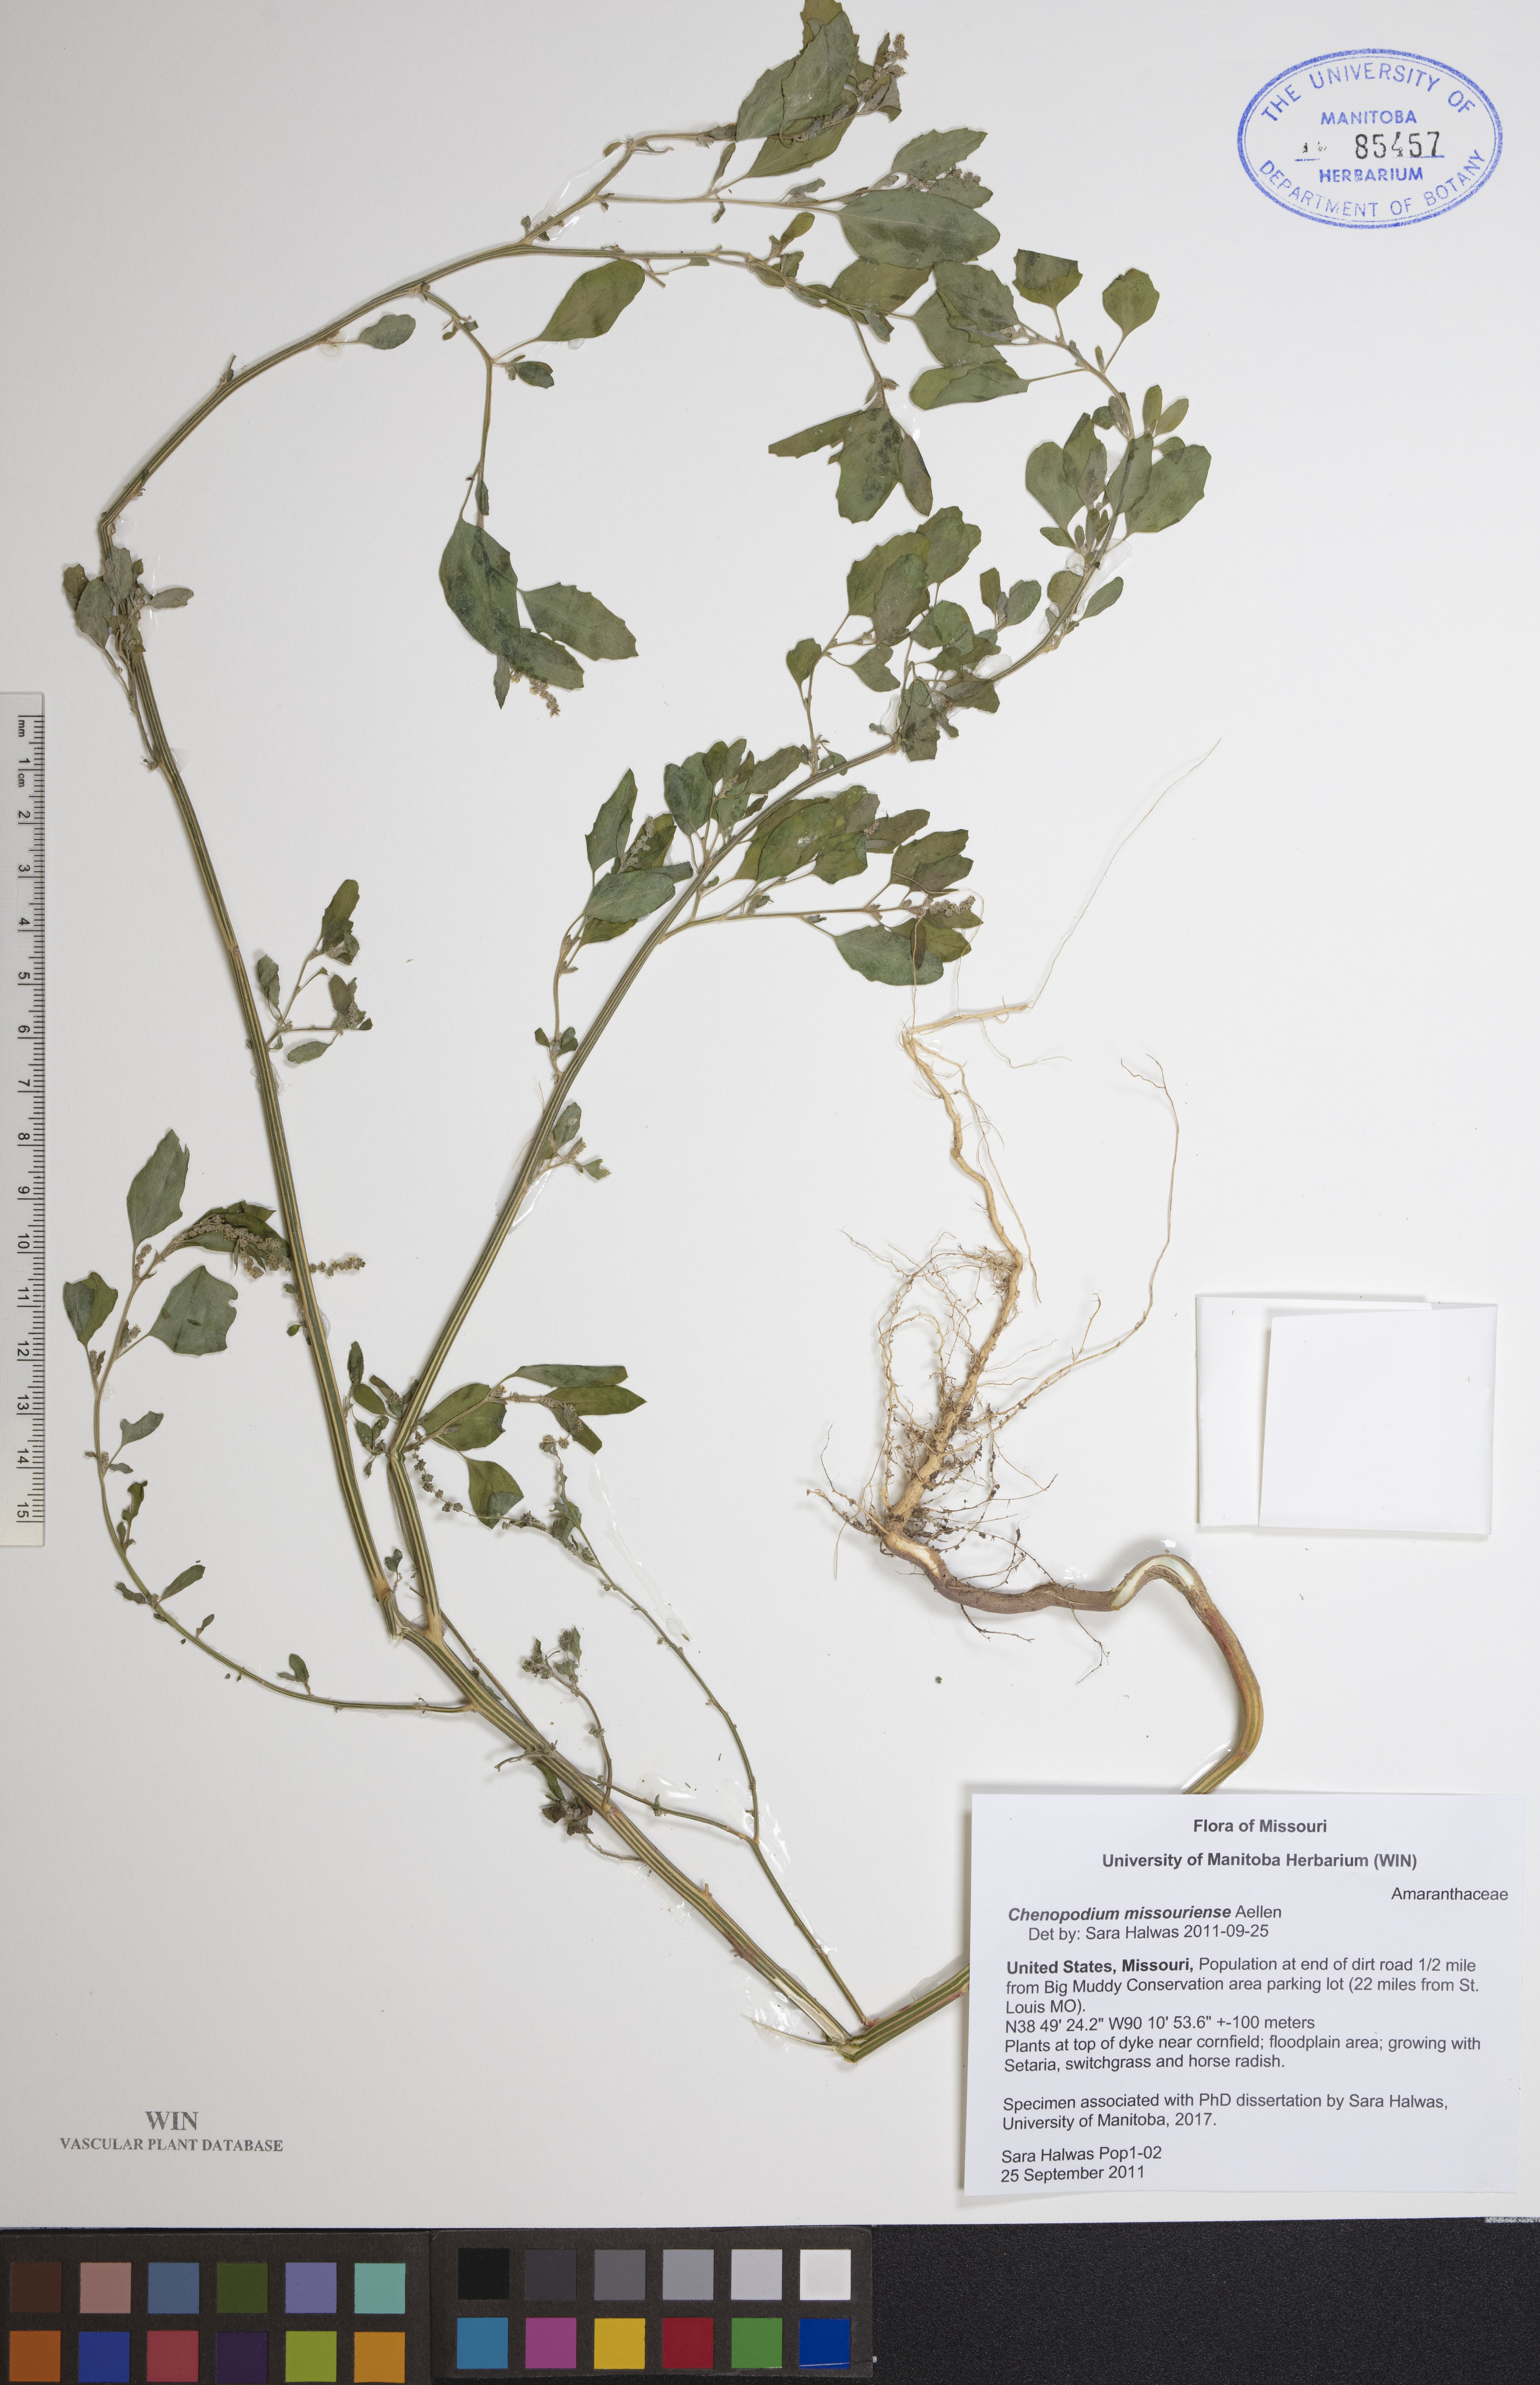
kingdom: Plantae
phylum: Tracheophyta
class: Magnoliopsida
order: Caryophyllales
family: Amaranthaceae
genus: Chenopodium
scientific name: Chenopodium album
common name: Fat-hen
